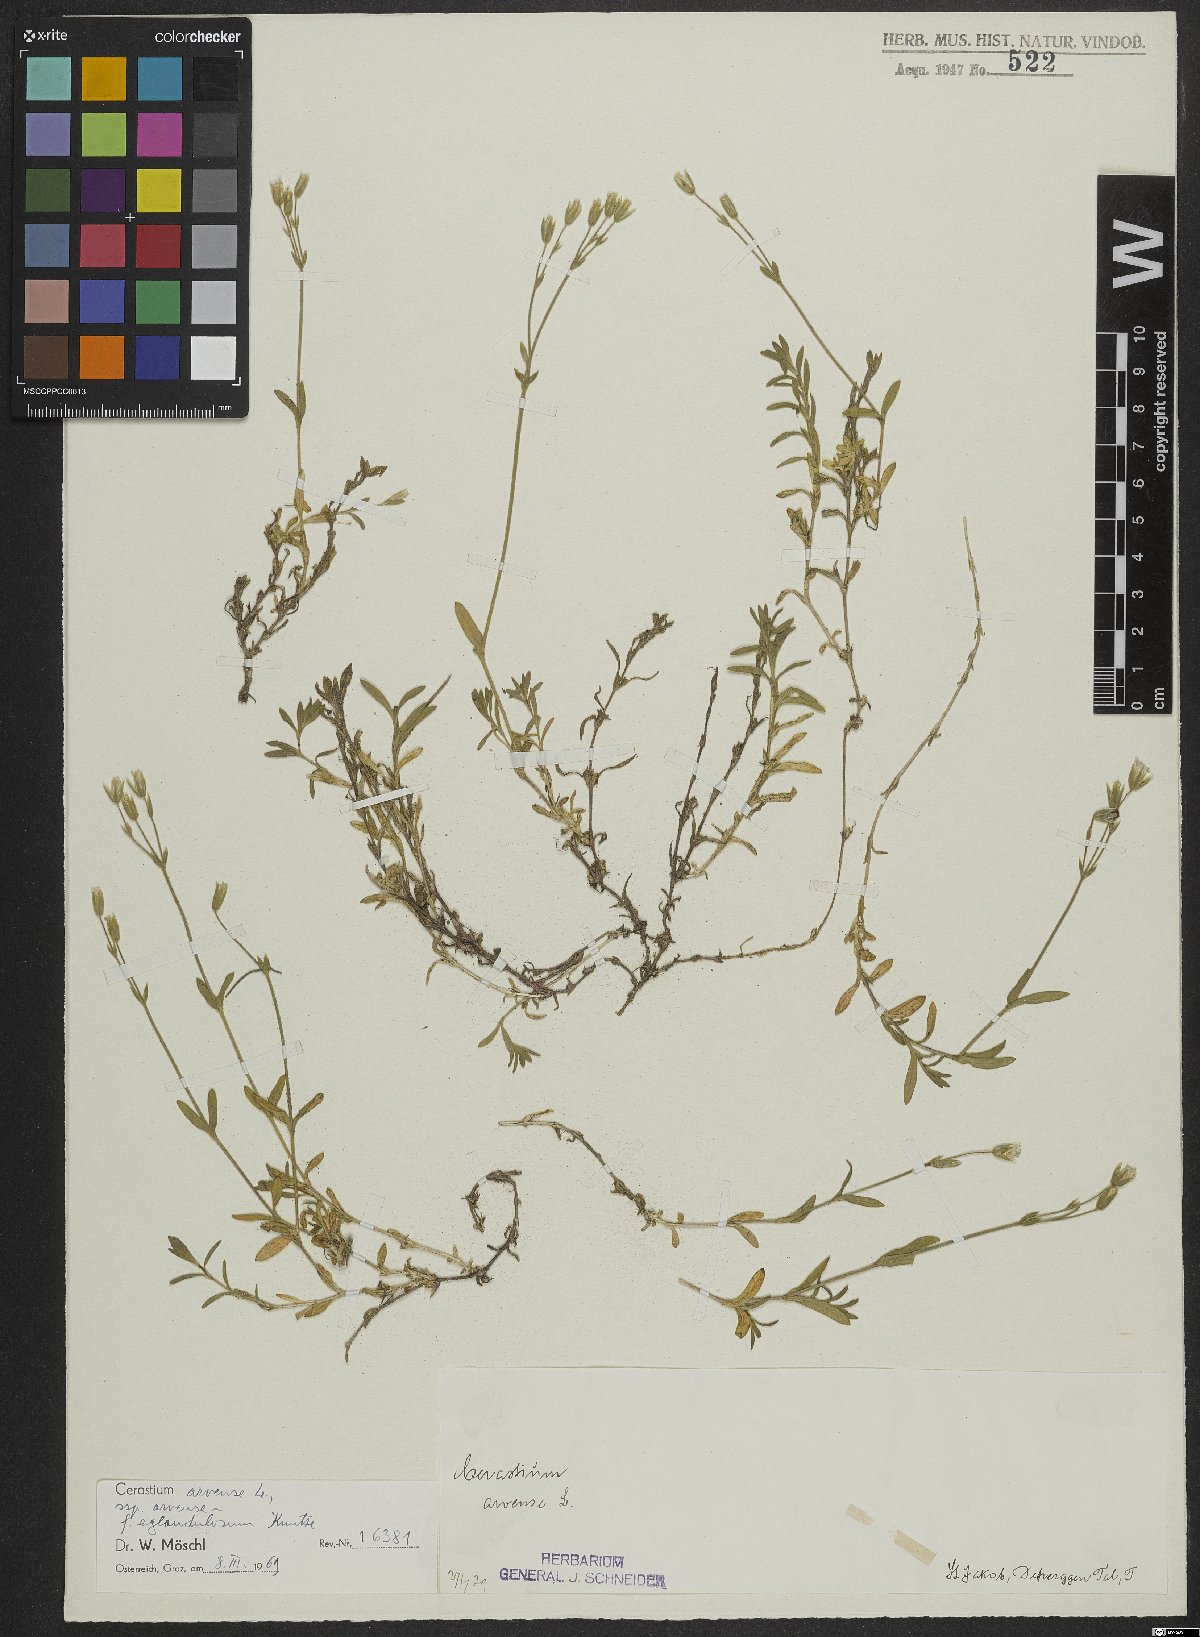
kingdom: Plantae
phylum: Tracheophyta
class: Magnoliopsida
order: Caryophyllales
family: Caryophyllaceae
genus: Cerastium
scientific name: Cerastium arvense
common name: Field mouse-ear
